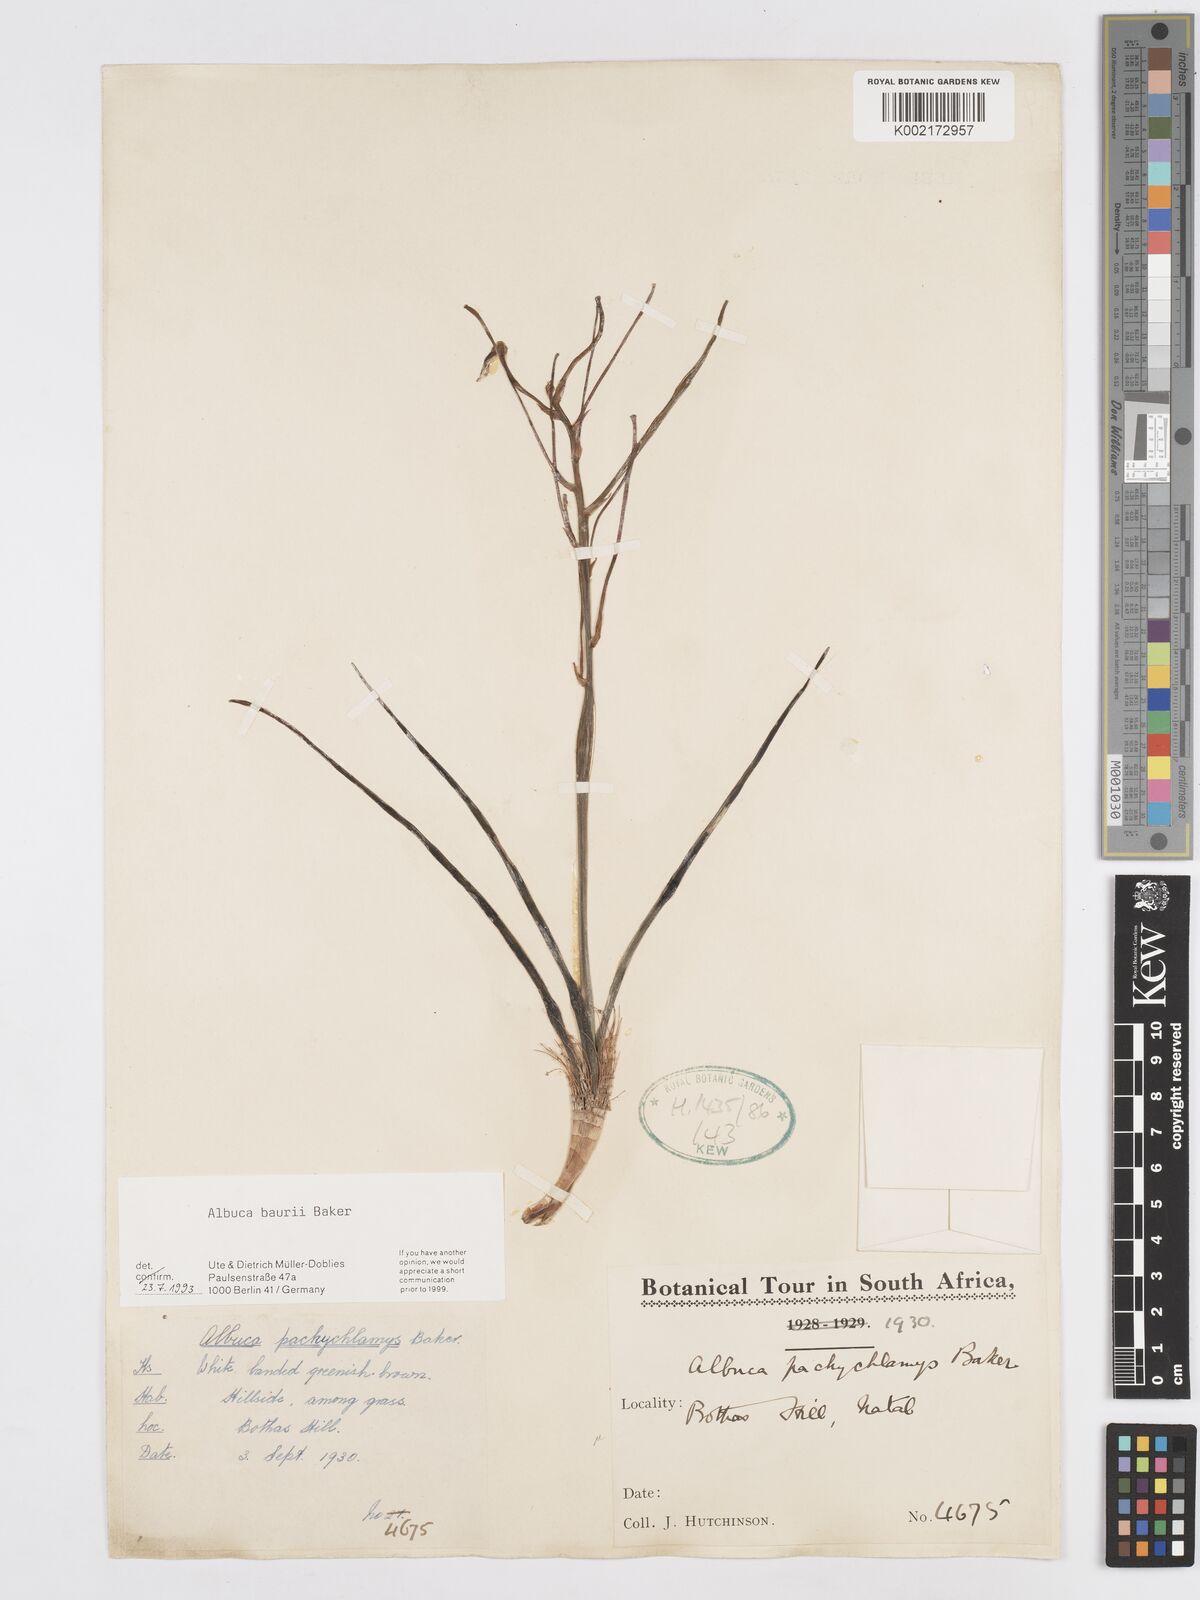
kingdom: Plantae
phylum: Tracheophyta
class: Liliopsida
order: Asparagales
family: Asparagaceae
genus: Albuca
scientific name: Albuca setosa
